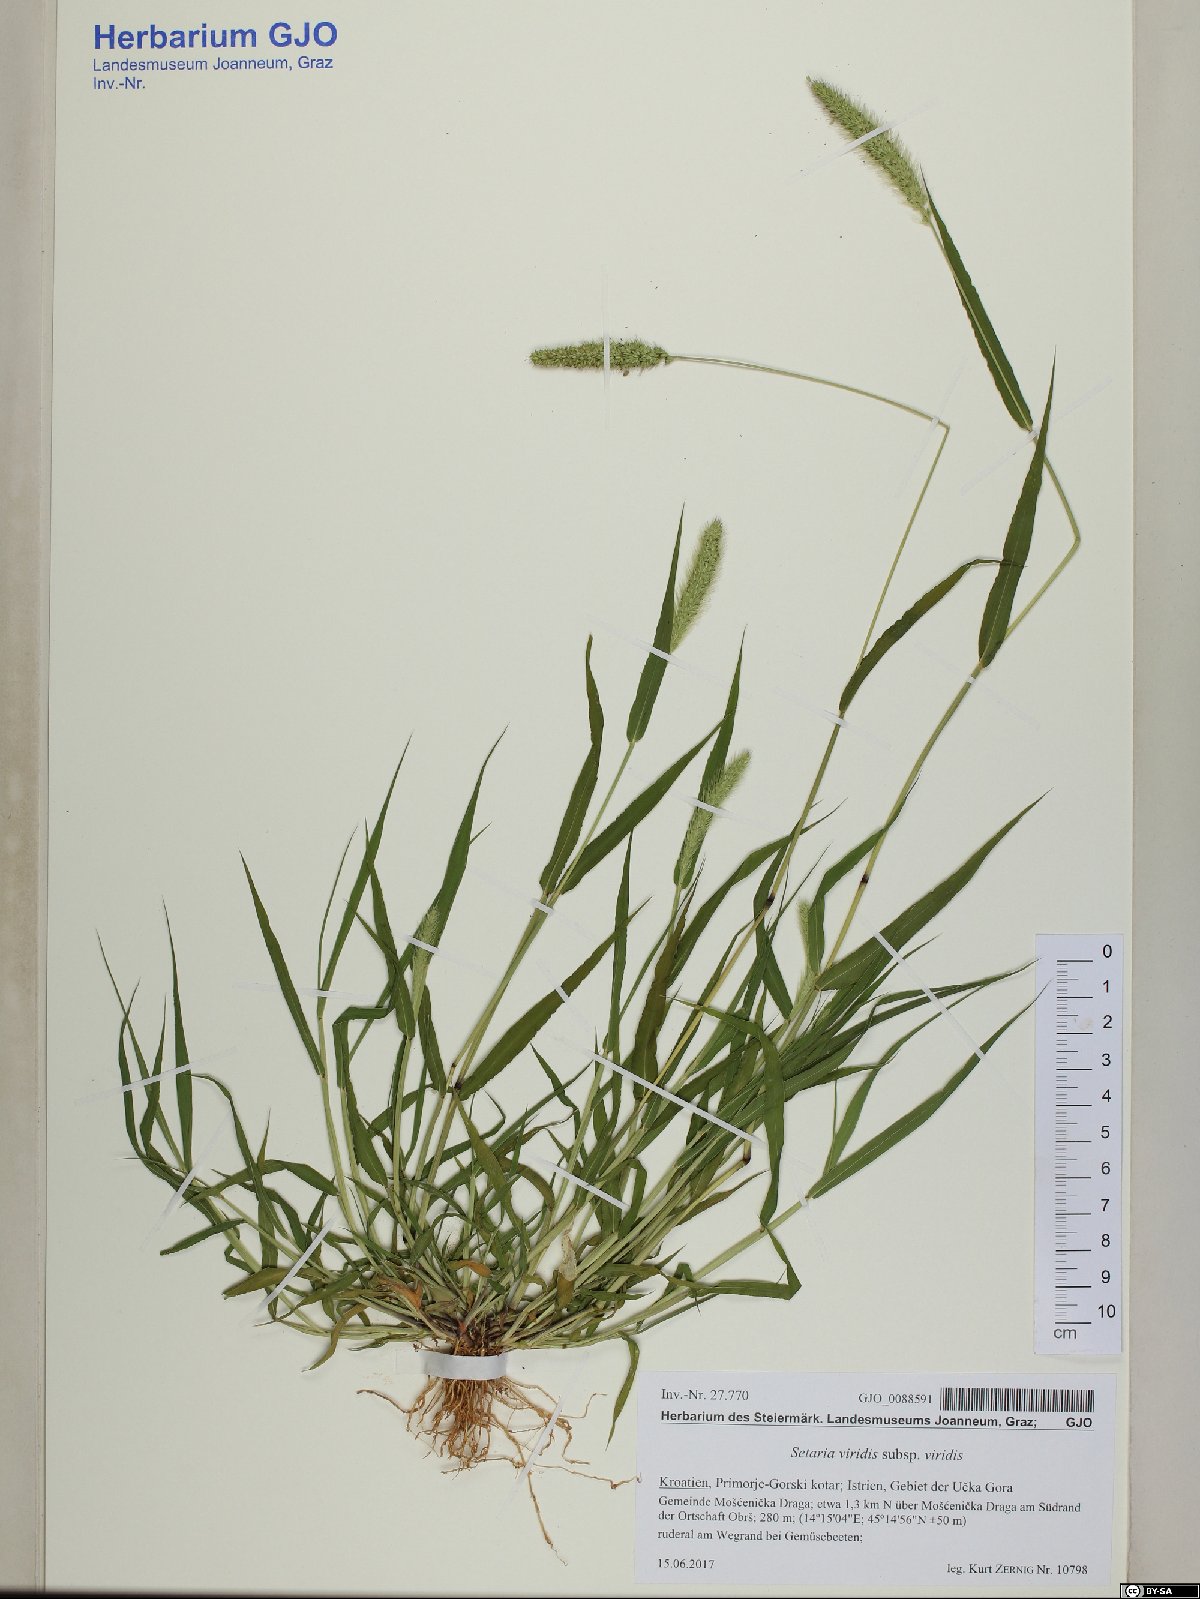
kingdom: Plantae
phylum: Tracheophyta
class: Liliopsida
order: Poales
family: Poaceae
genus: Setaria
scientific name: Setaria viridis
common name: Green bristlegrass
